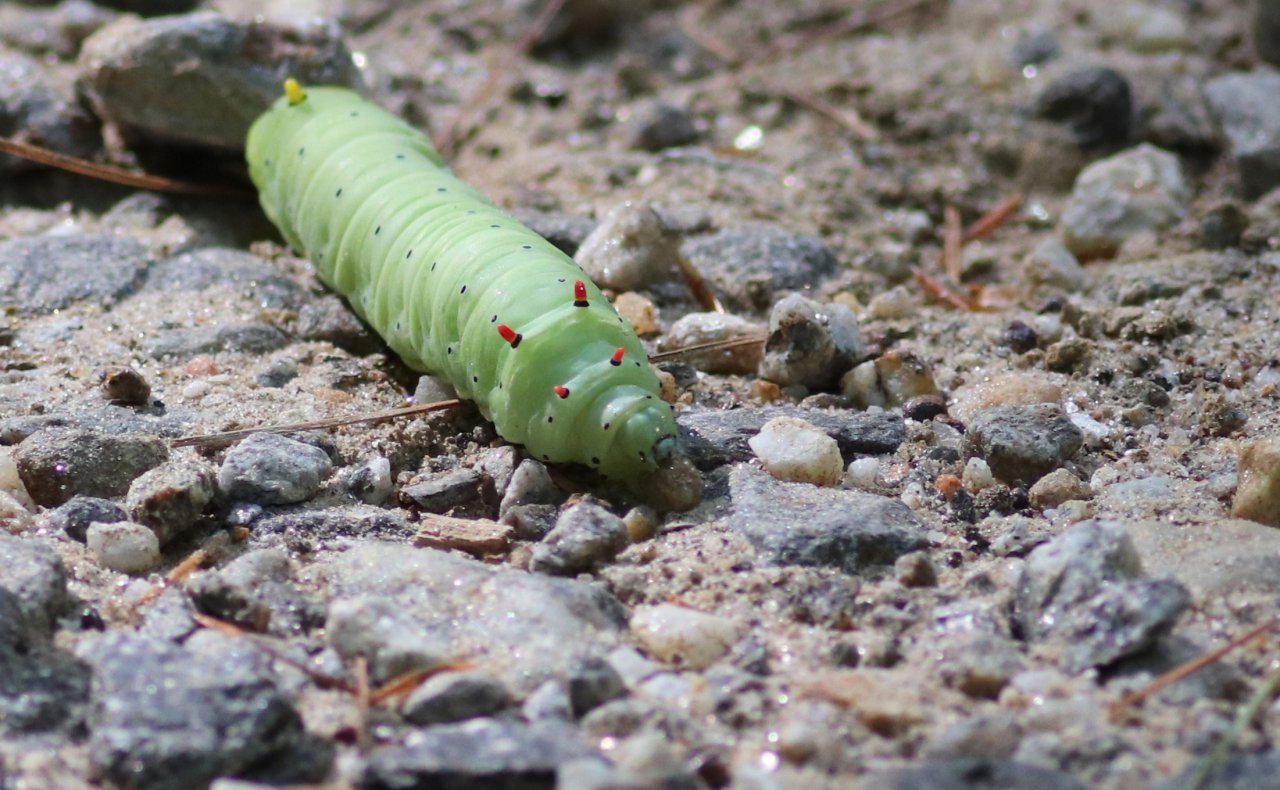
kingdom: Animalia
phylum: Arthropoda
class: Insecta
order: Lepidoptera
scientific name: Lepidoptera
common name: Butterflies
